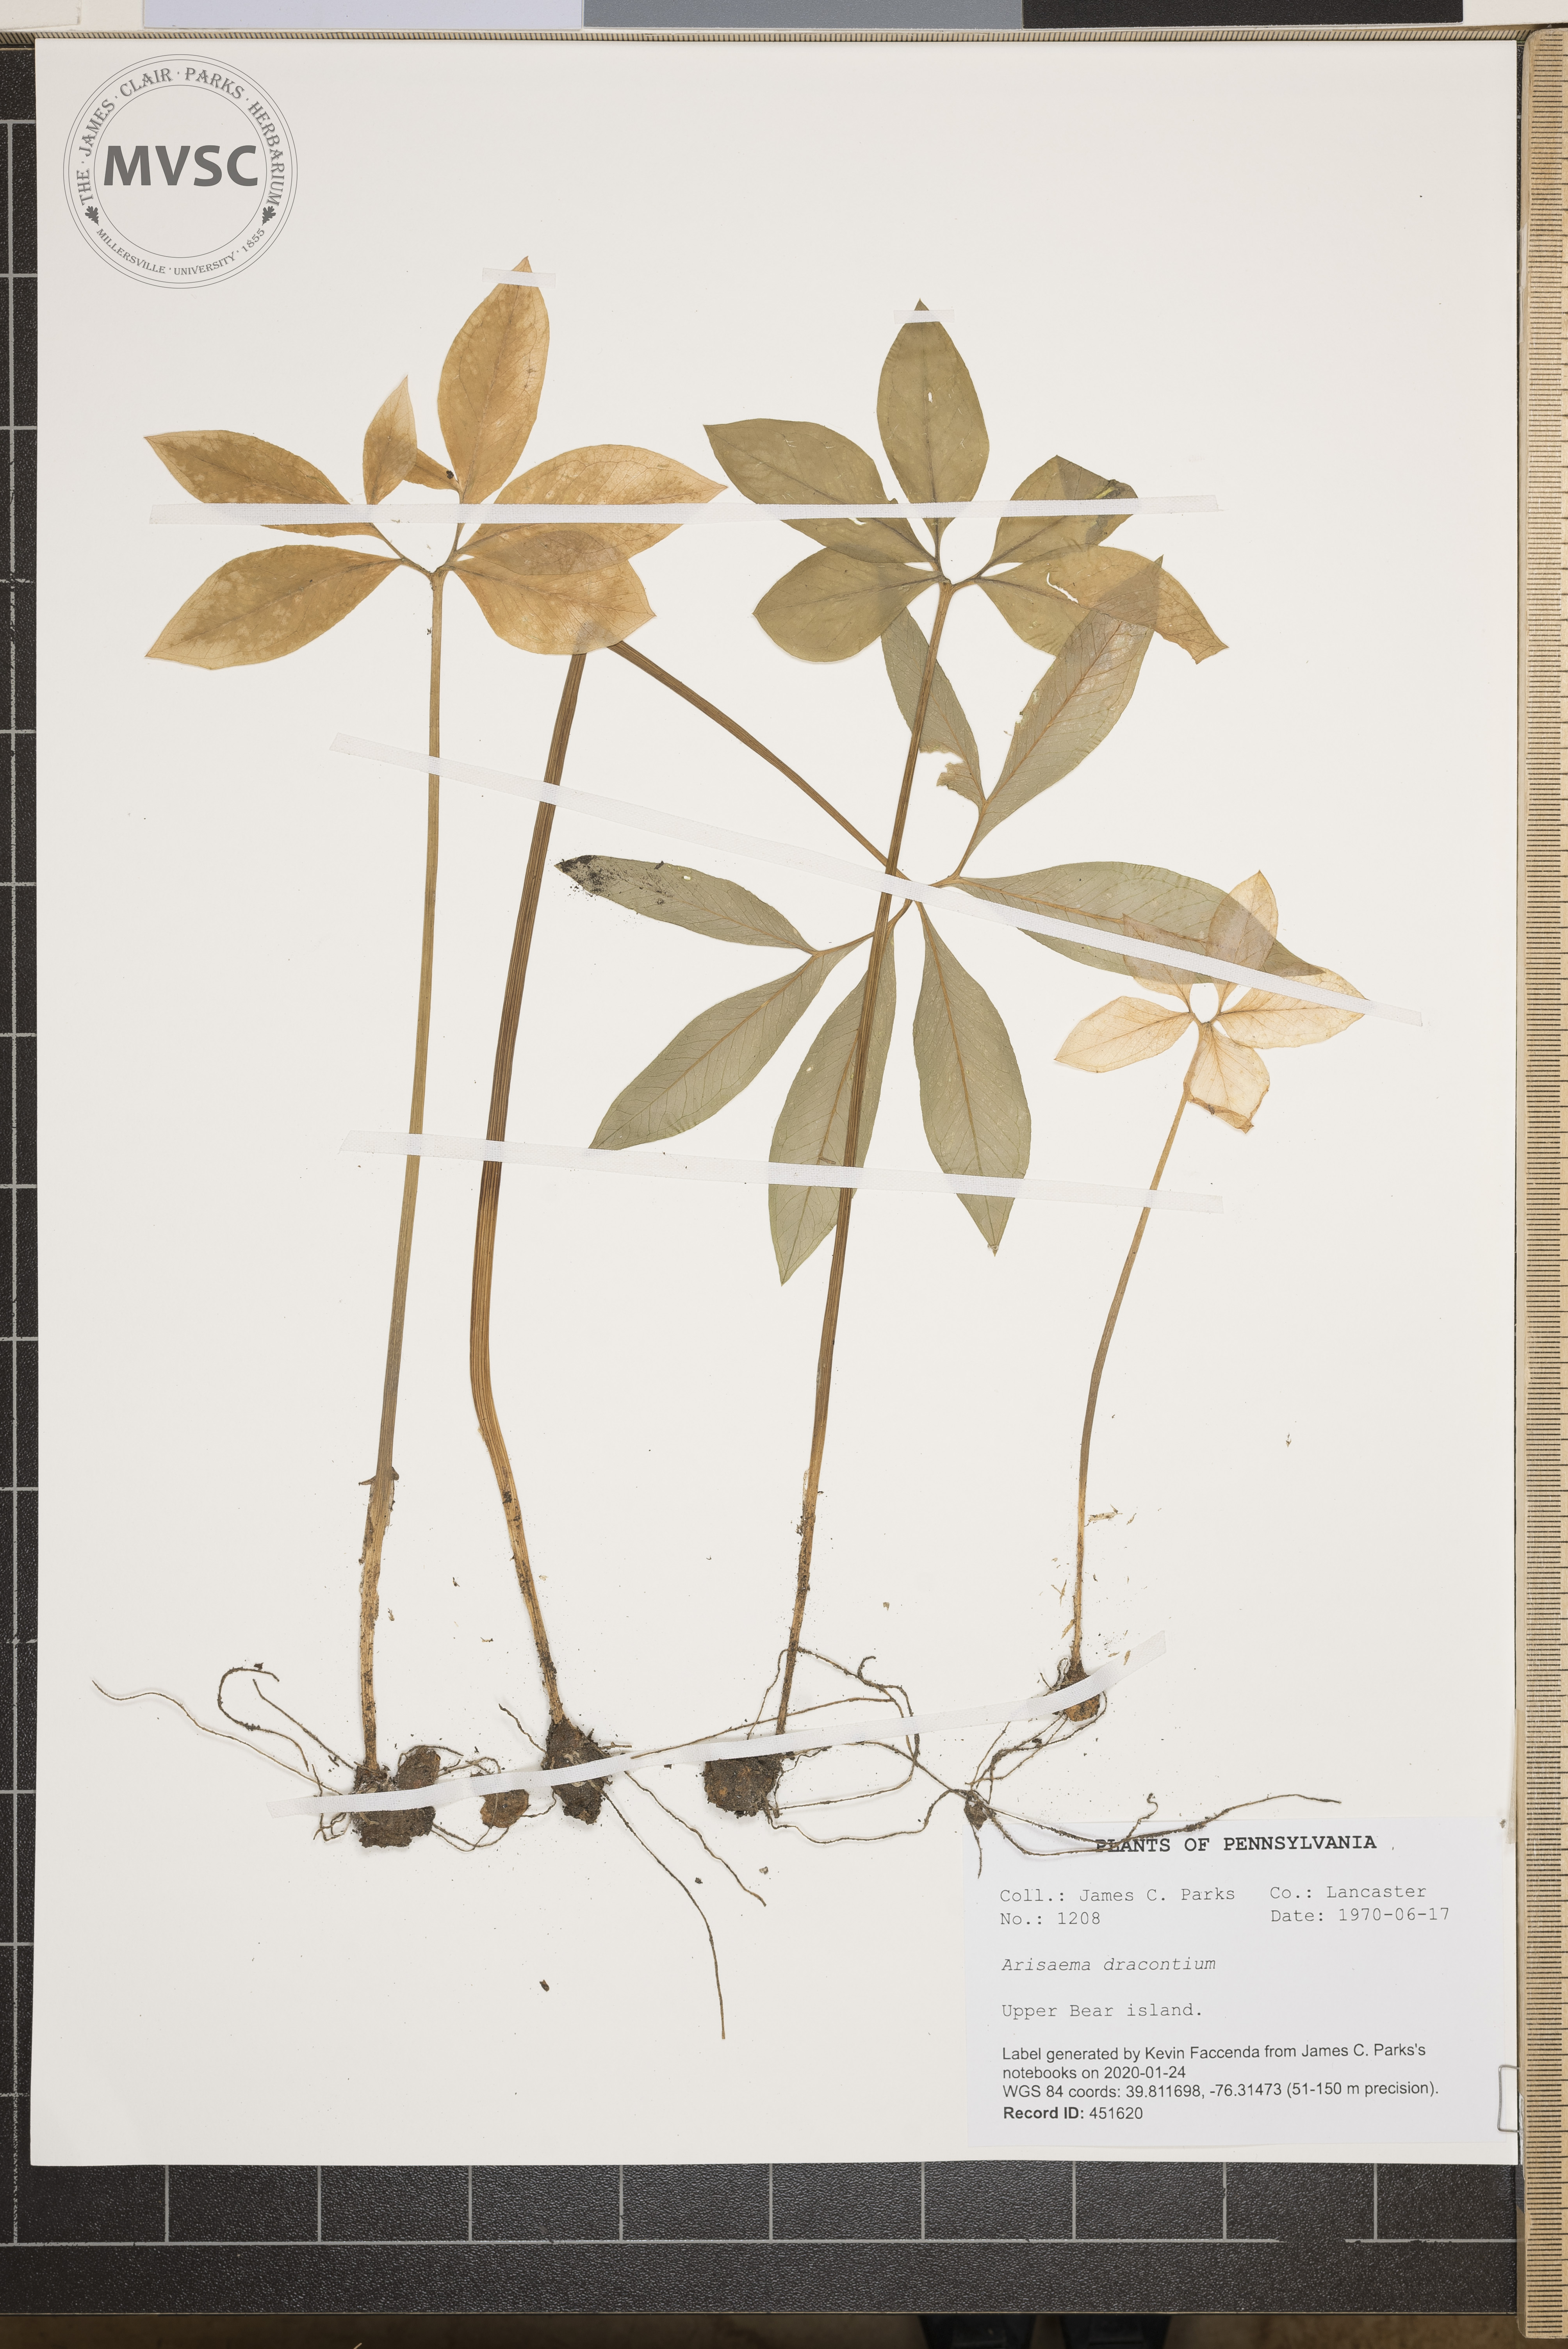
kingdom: Plantae
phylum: Tracheophyta
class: Liliopsida
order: Alismatales
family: Araceae
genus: Arisaema
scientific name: Arisaema dracontium
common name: Dragon-arum
